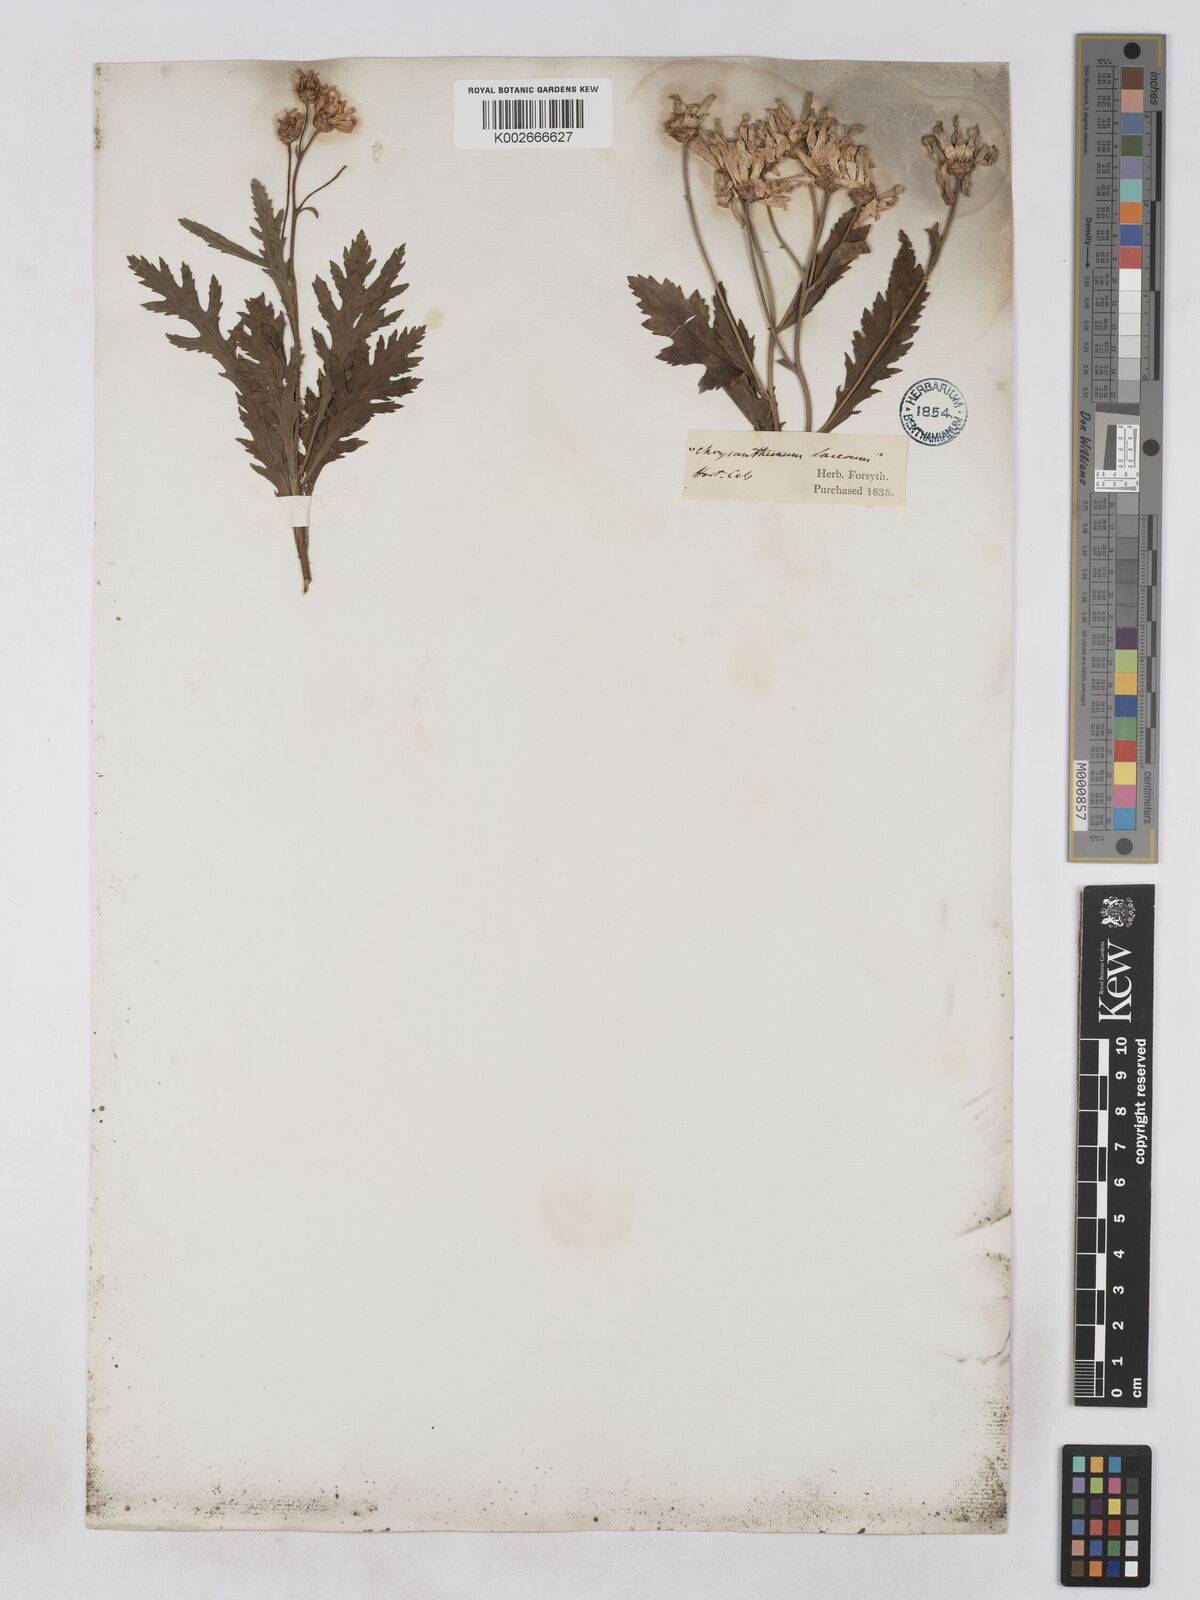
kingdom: Plantae
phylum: Tracheophyta
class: Magnoliopsida
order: Asterales
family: Asteraceae
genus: Argyranthemum
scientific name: Argyranthemum pinnatifidum
